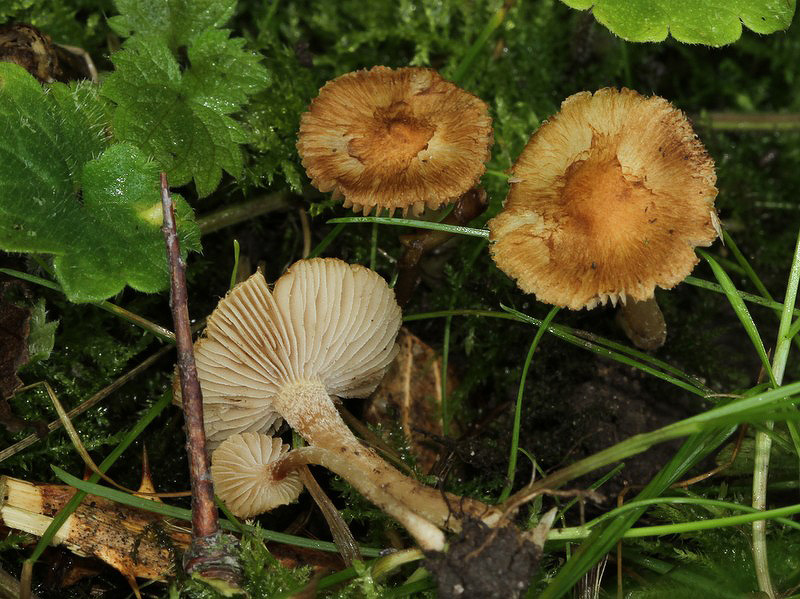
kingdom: Fungi
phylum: Basidiomycota
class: Agaricomycetes
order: Agaricales
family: Inocybaceae
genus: Inocybe
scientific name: Inocybe hirtella
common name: mandel-trævlhat
